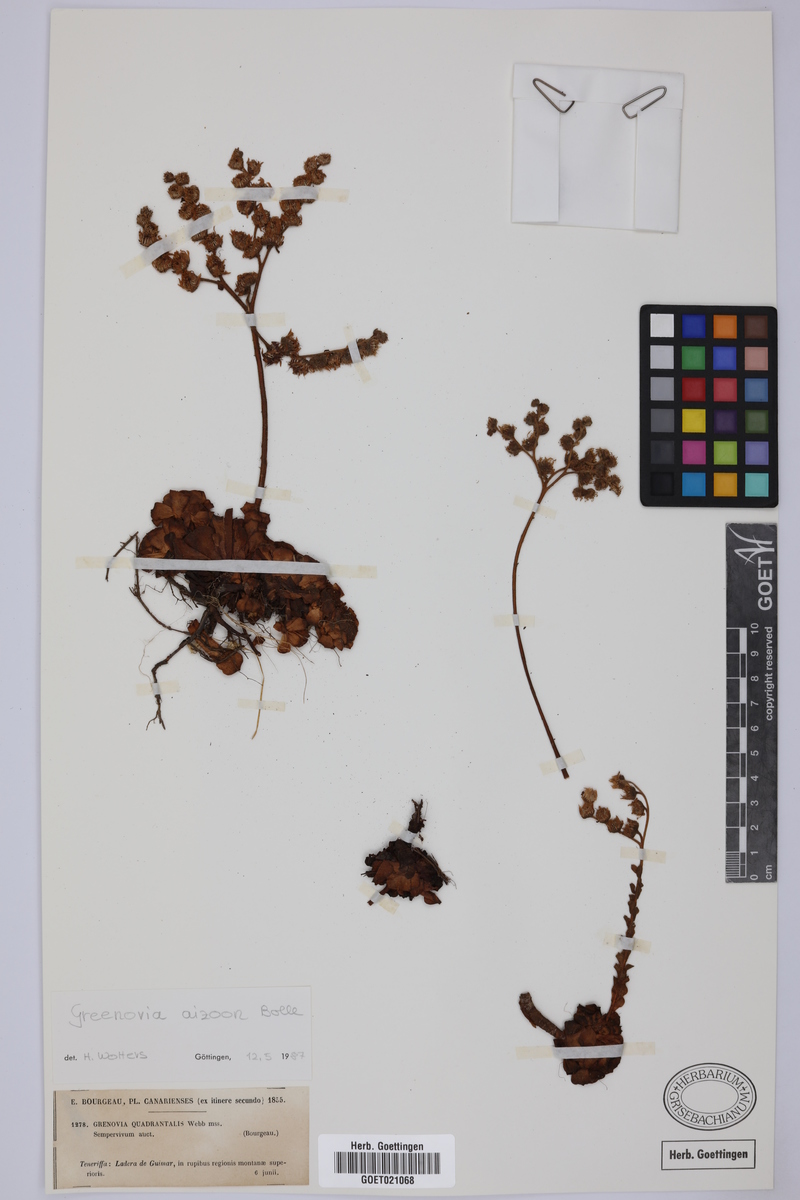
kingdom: Plantae
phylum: Tracheophyta
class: Magnoliopsida
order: Saxifragales
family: Crassulaceae
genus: Aeonium
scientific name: Aeonium aizoon
